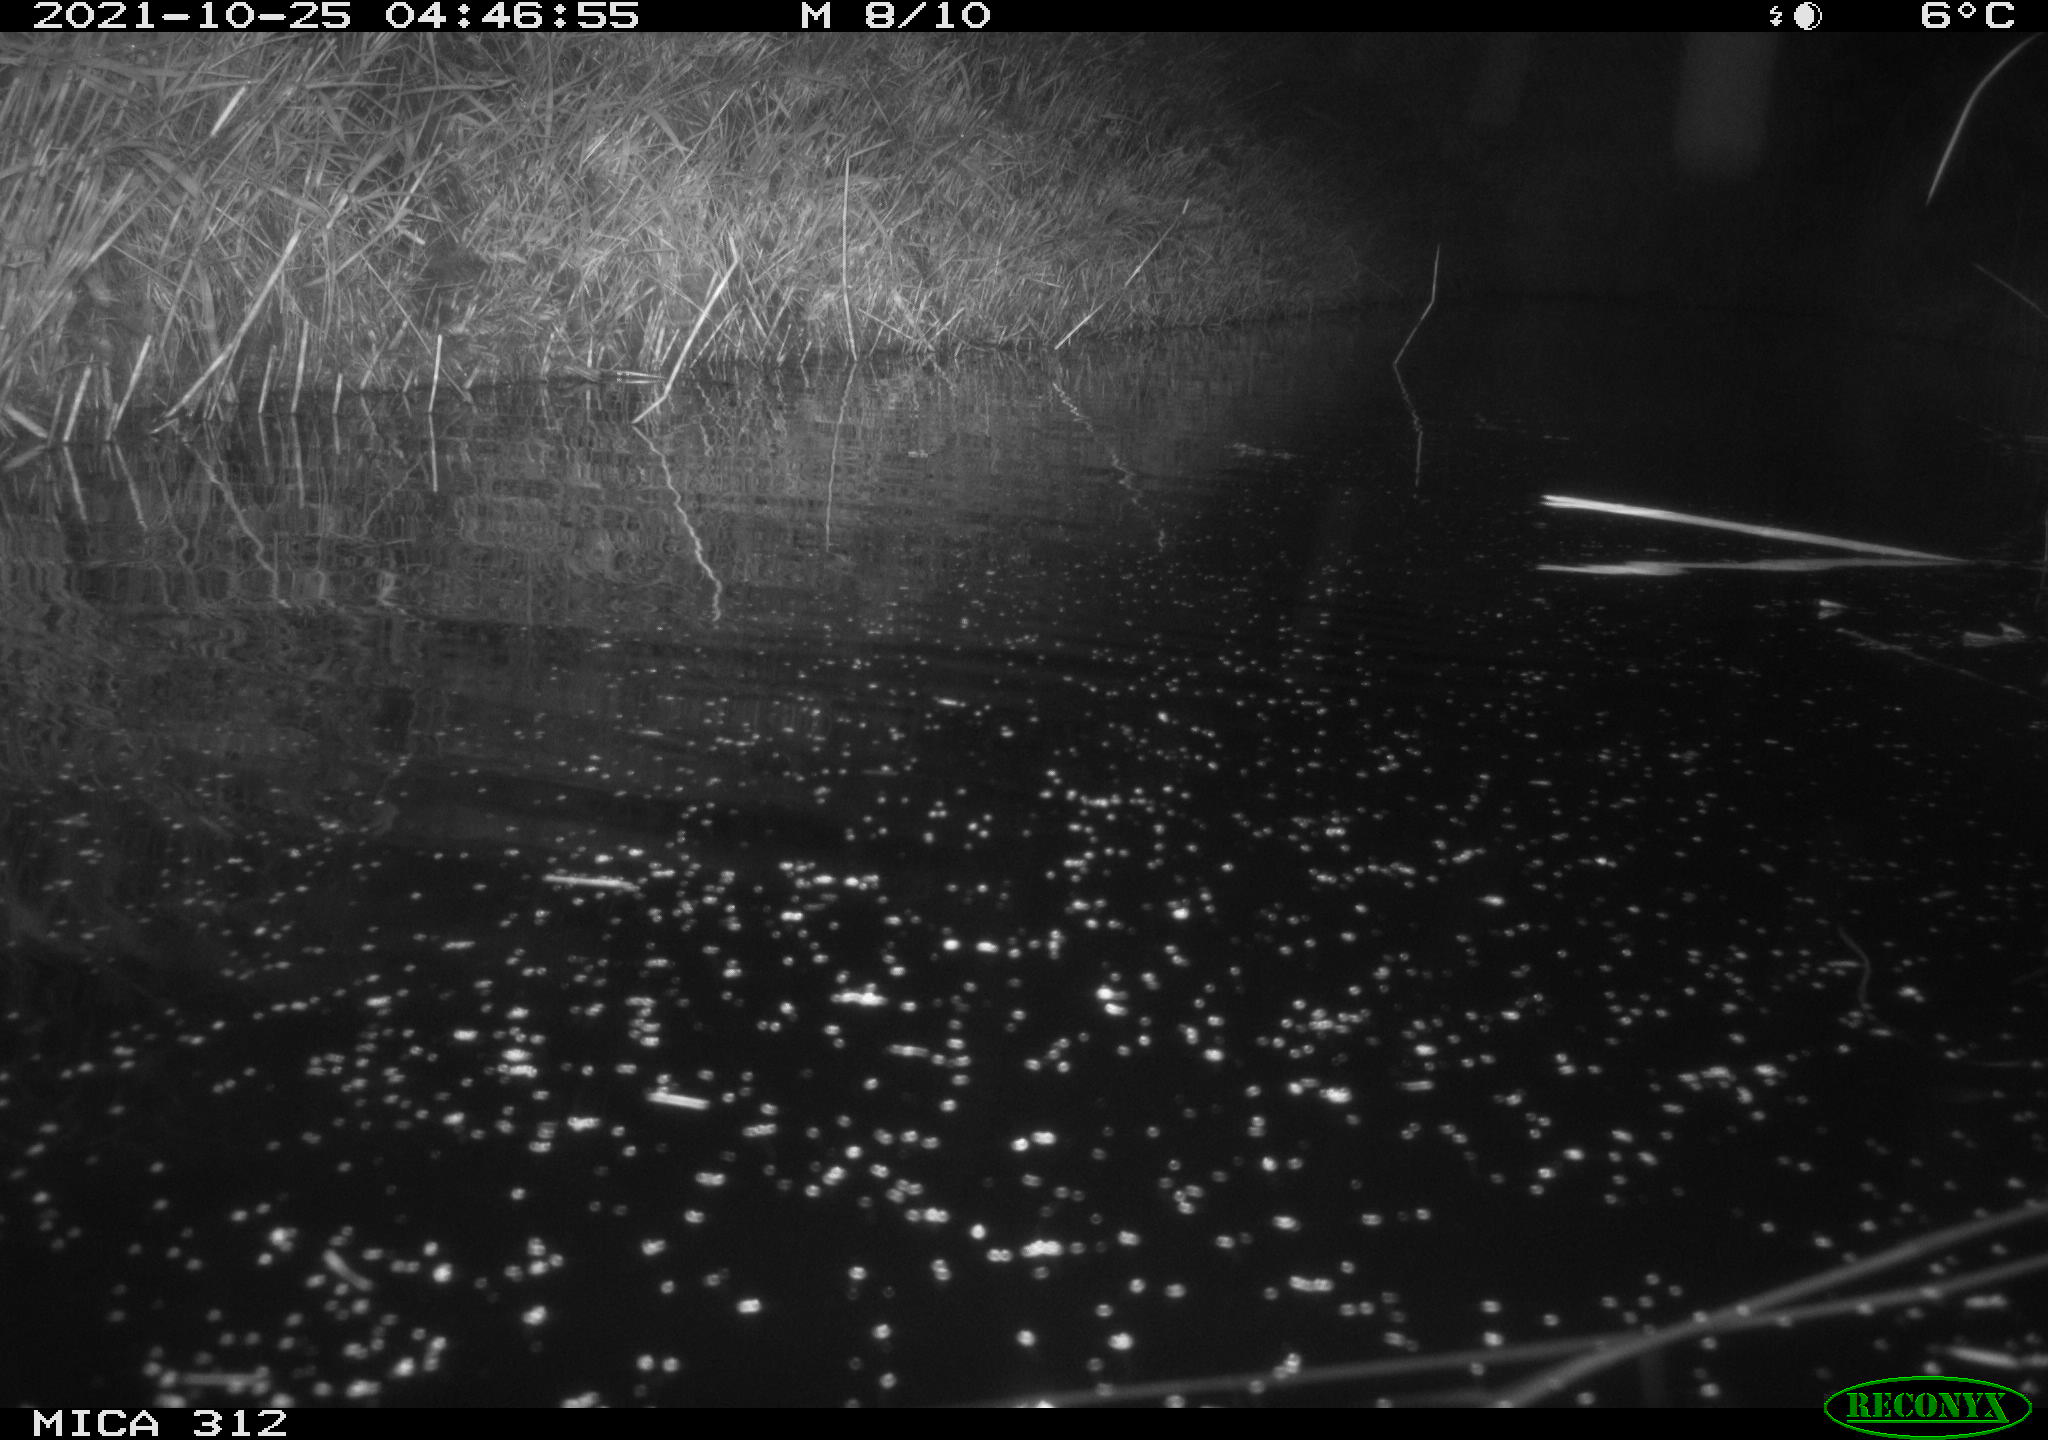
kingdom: Animalia
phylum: Chordata
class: Mammalia
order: Rodentia
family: Muridae
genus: Rattus
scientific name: Rattus norvegicus
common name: Brown rat
